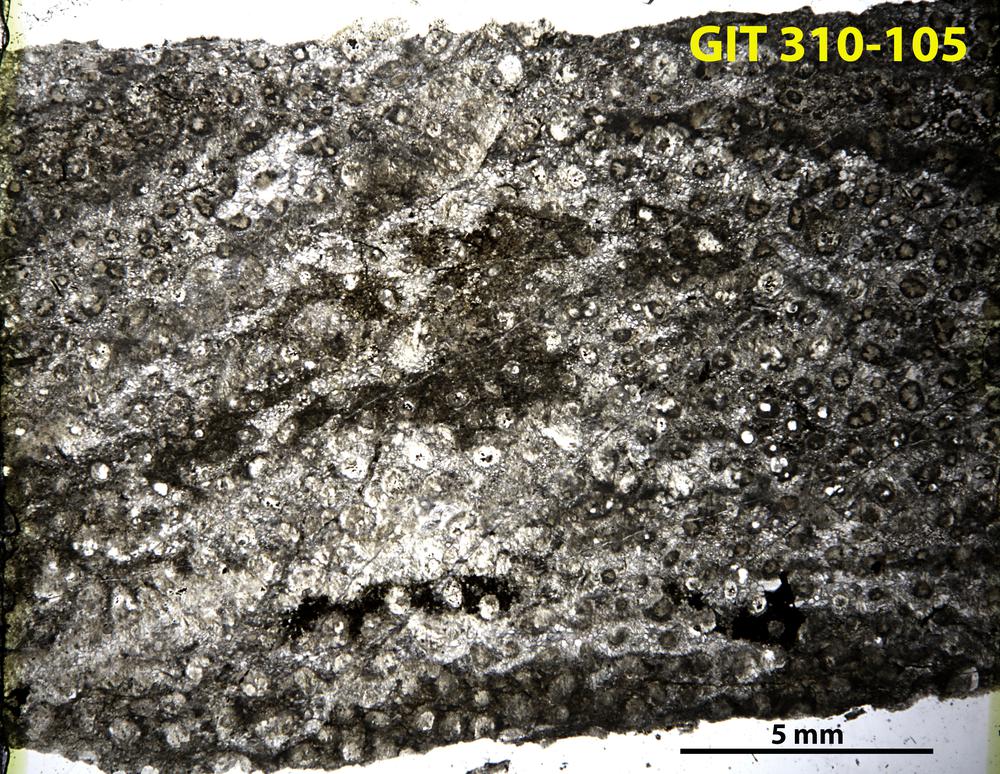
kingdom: Animalia
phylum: Porifera
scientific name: Porifera
